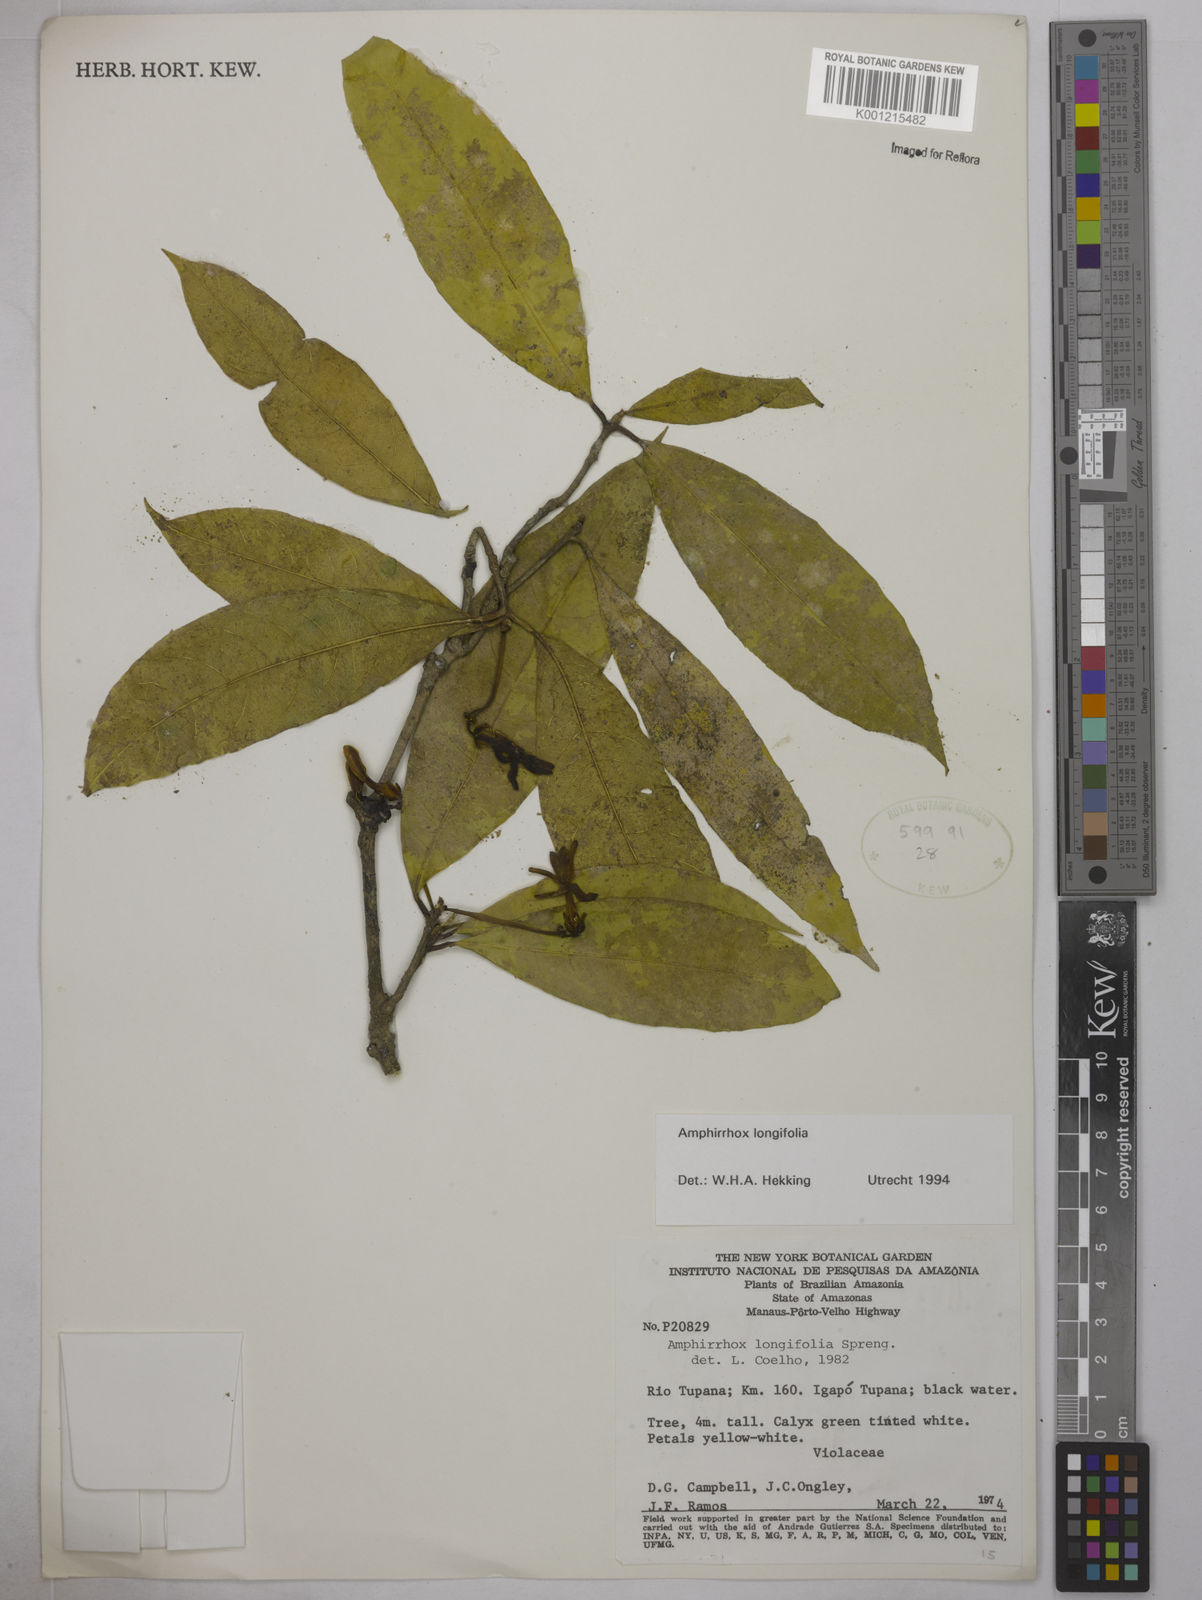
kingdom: Plantae
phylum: Tracheophyta
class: Magnoliopsida
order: Malpighiales
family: Violaceae
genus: Amphirrhox
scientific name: Amphirrhox longifolia
